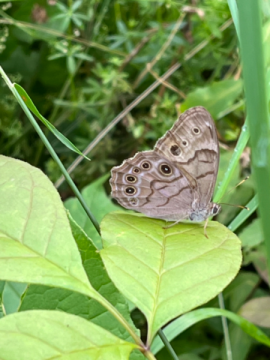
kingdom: Animalia
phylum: Arthropoda
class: Insecta
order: Lepidoptera
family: Nymphalidae
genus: Lethe
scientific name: Lethe anthedon
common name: Northern Pearly-Eye
